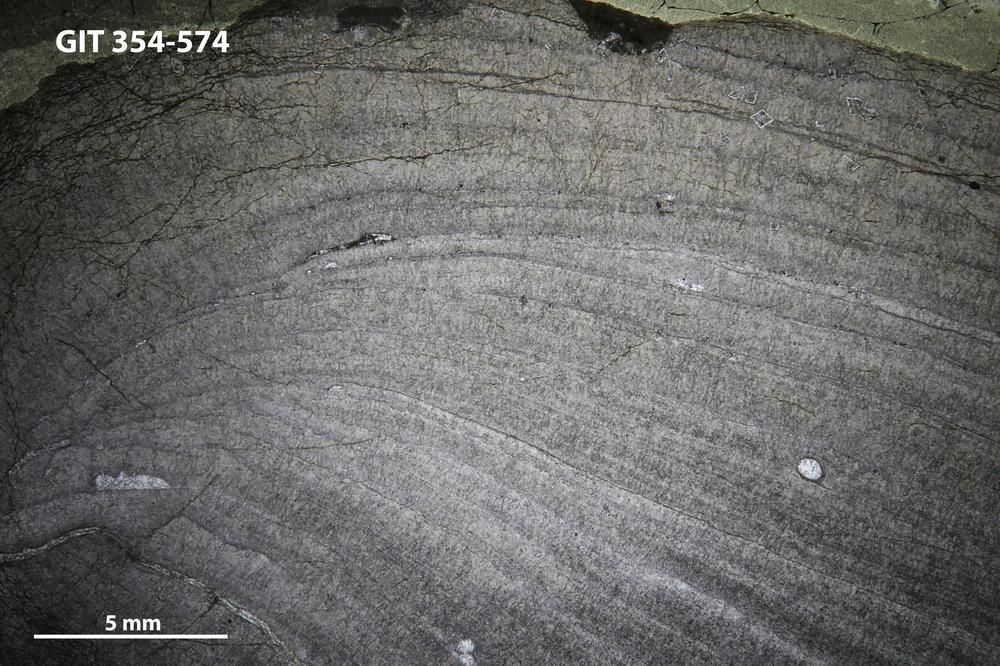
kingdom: Animalia
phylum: Porifera
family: Densastromatidae
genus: Densastroma
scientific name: Densastroma Actinostroma pexisum
